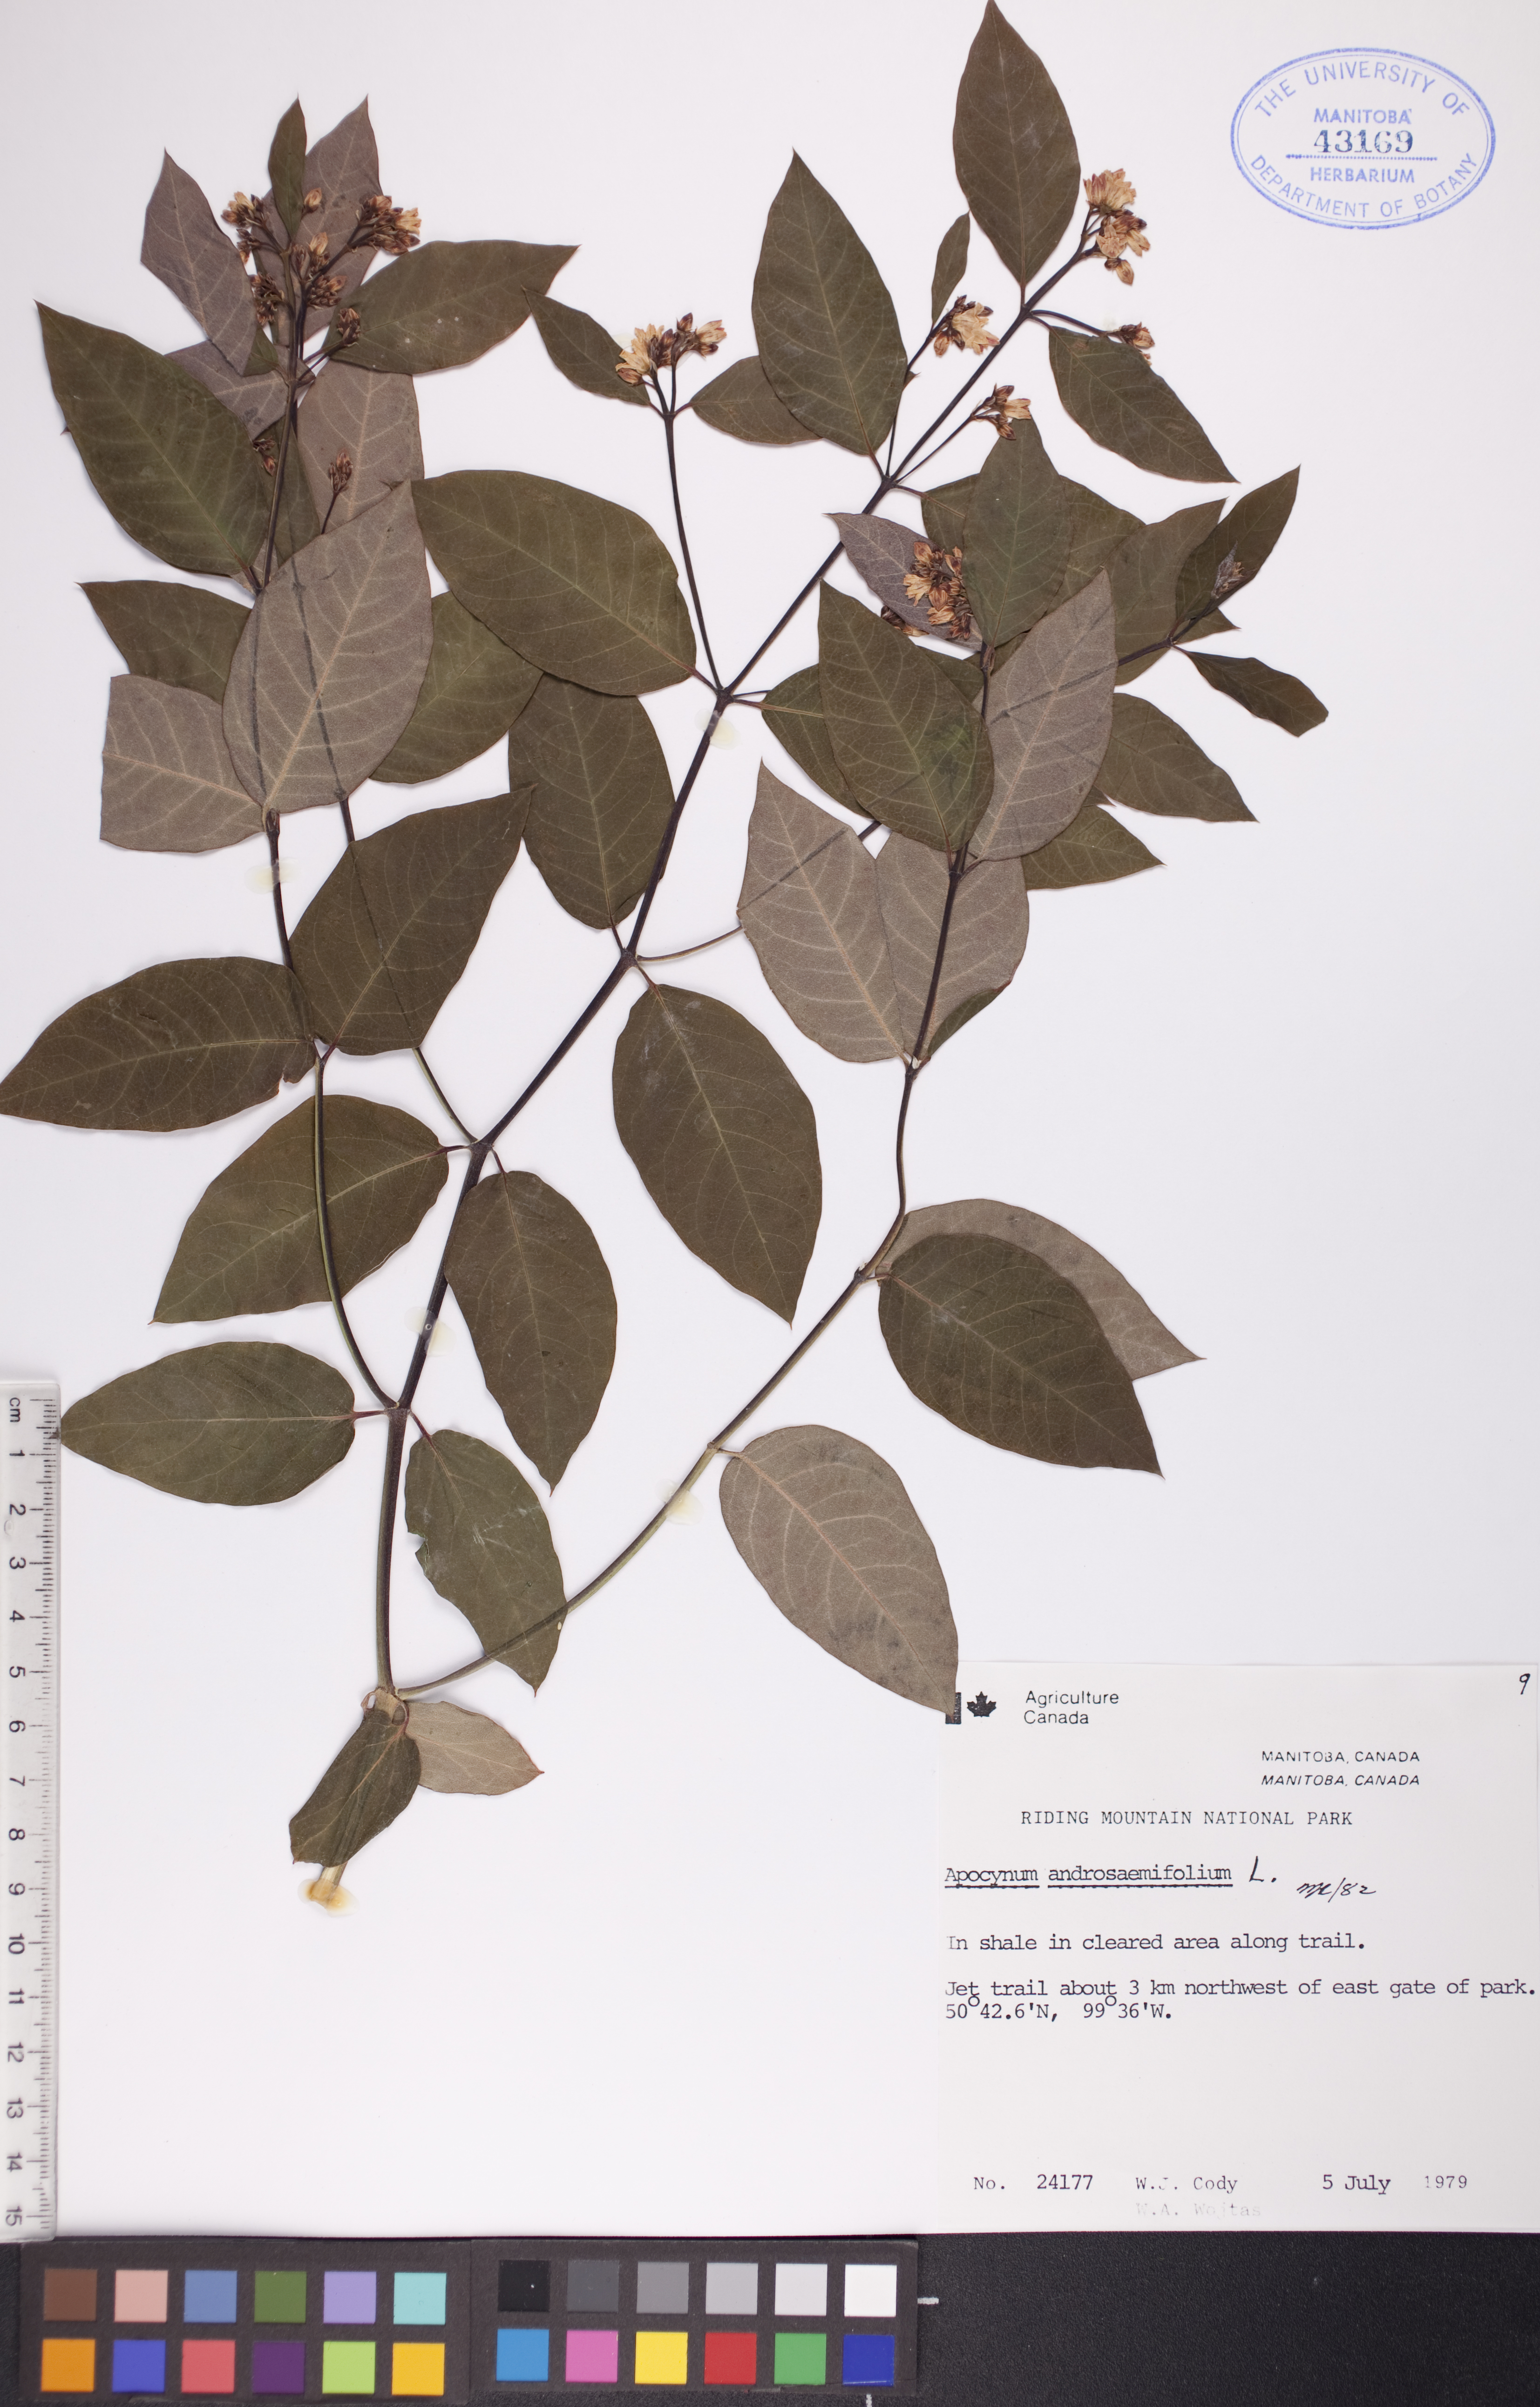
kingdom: Plantae
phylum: Tracheophyta
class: Magnoliopsida
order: Gentianales
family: Apocynaceae
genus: Apocynum
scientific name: Apocynum androsaemifolium
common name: Spreading dogbane
